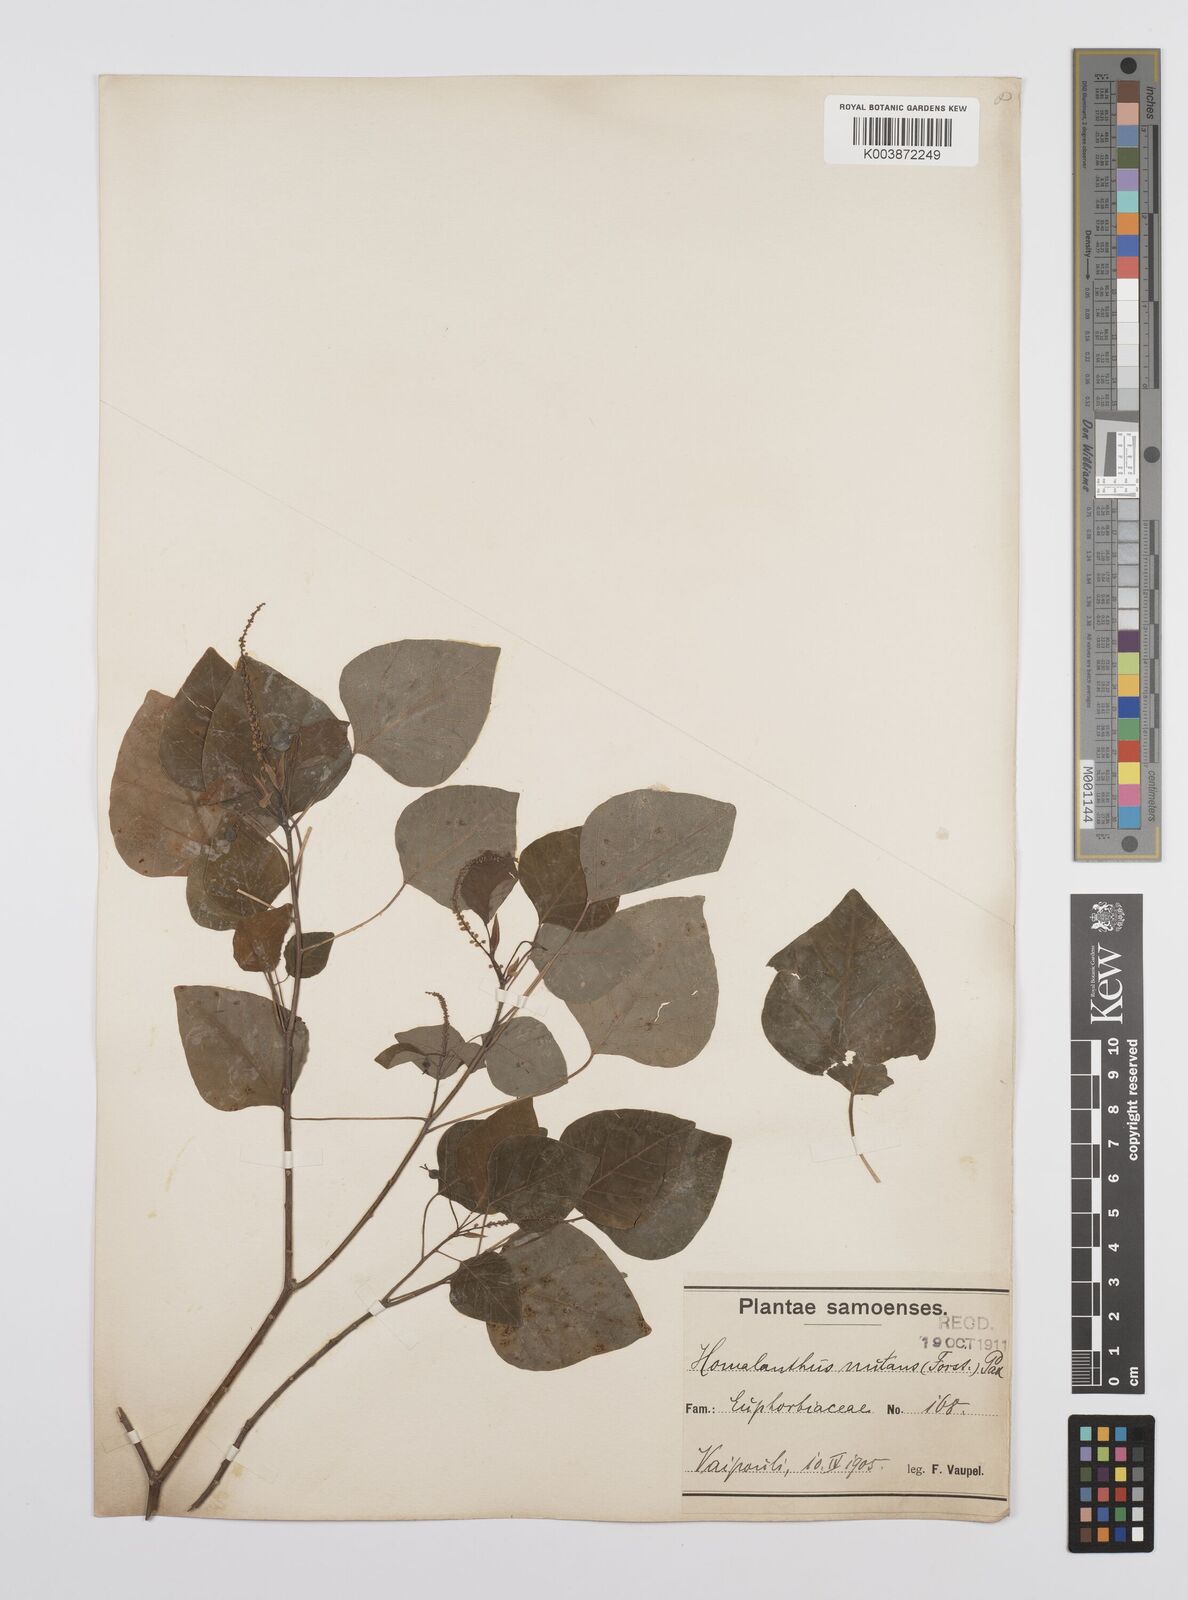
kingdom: Plantae
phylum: Tracheophyta
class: Magnoliopsida
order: Malpighiales
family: Euphorbiaceae
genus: Homalanthus
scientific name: Homalanthus nutans
